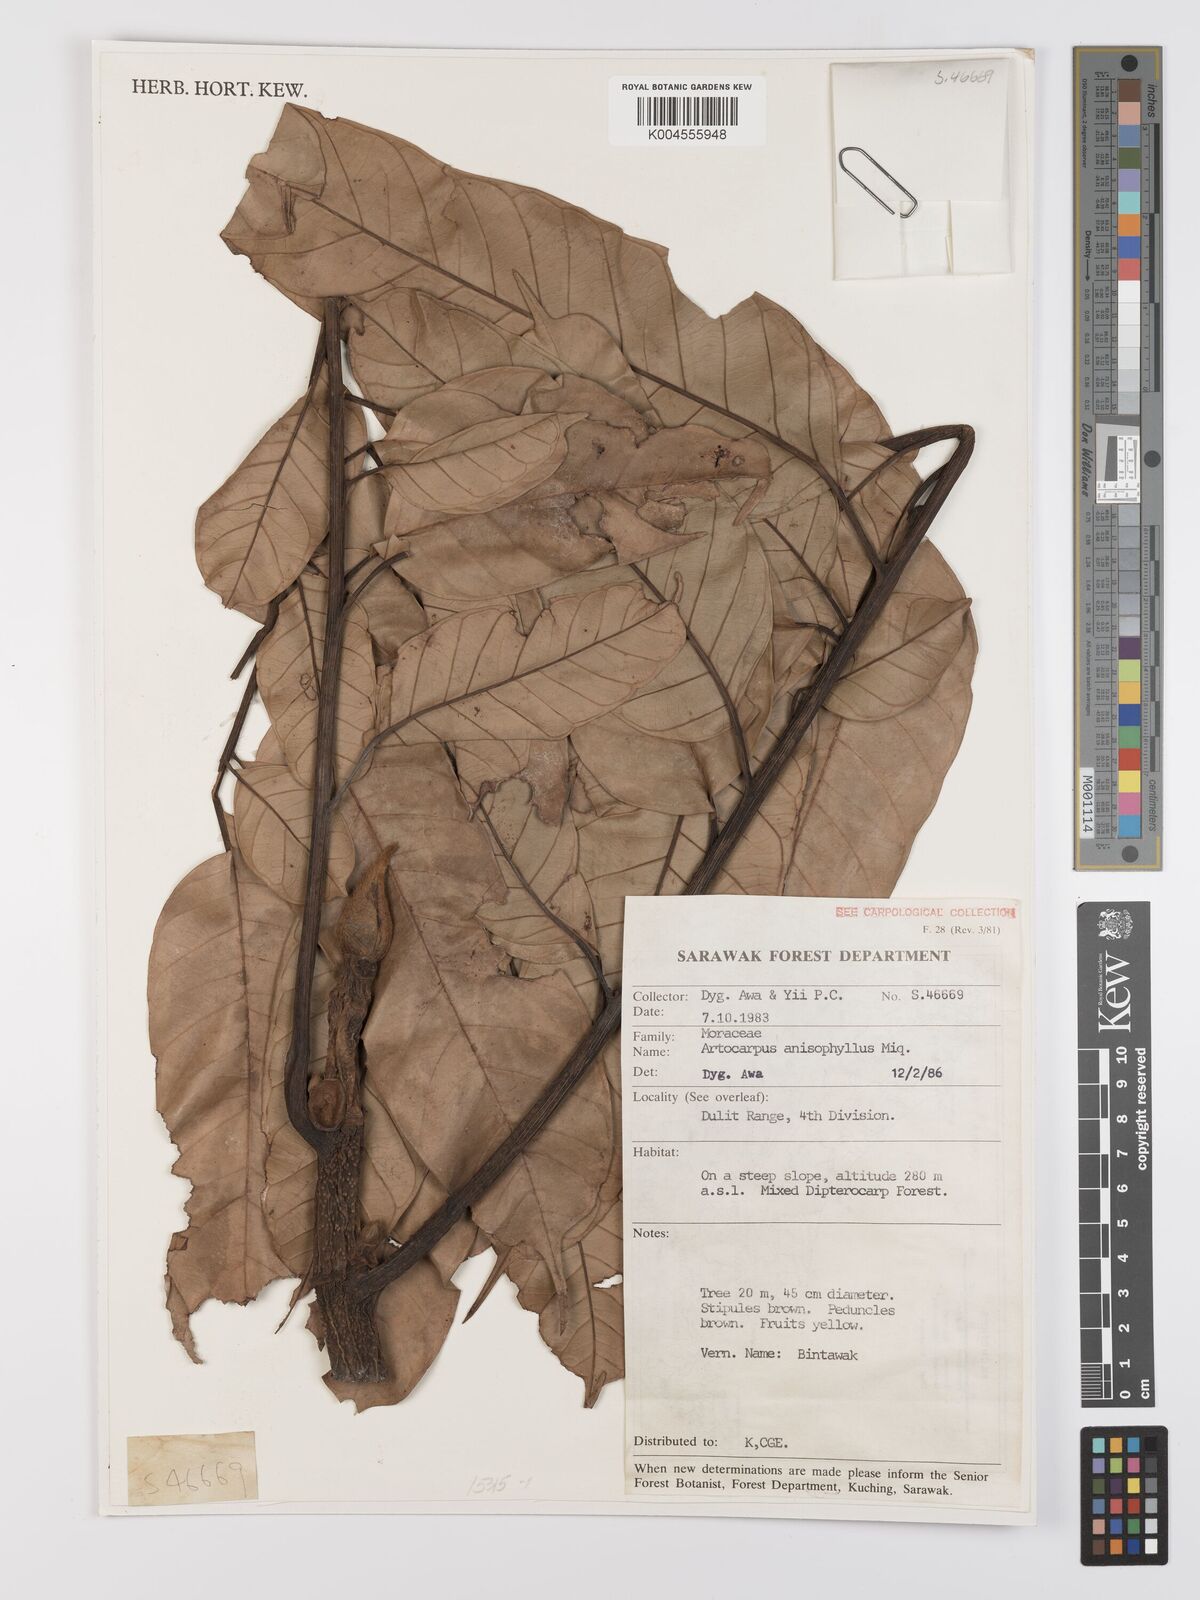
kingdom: Plantae
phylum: Tracheophyta
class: Magnoliopsida
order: Rosales
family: Moraceae
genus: Artocarpus
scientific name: Artocarpus anisophyllus
